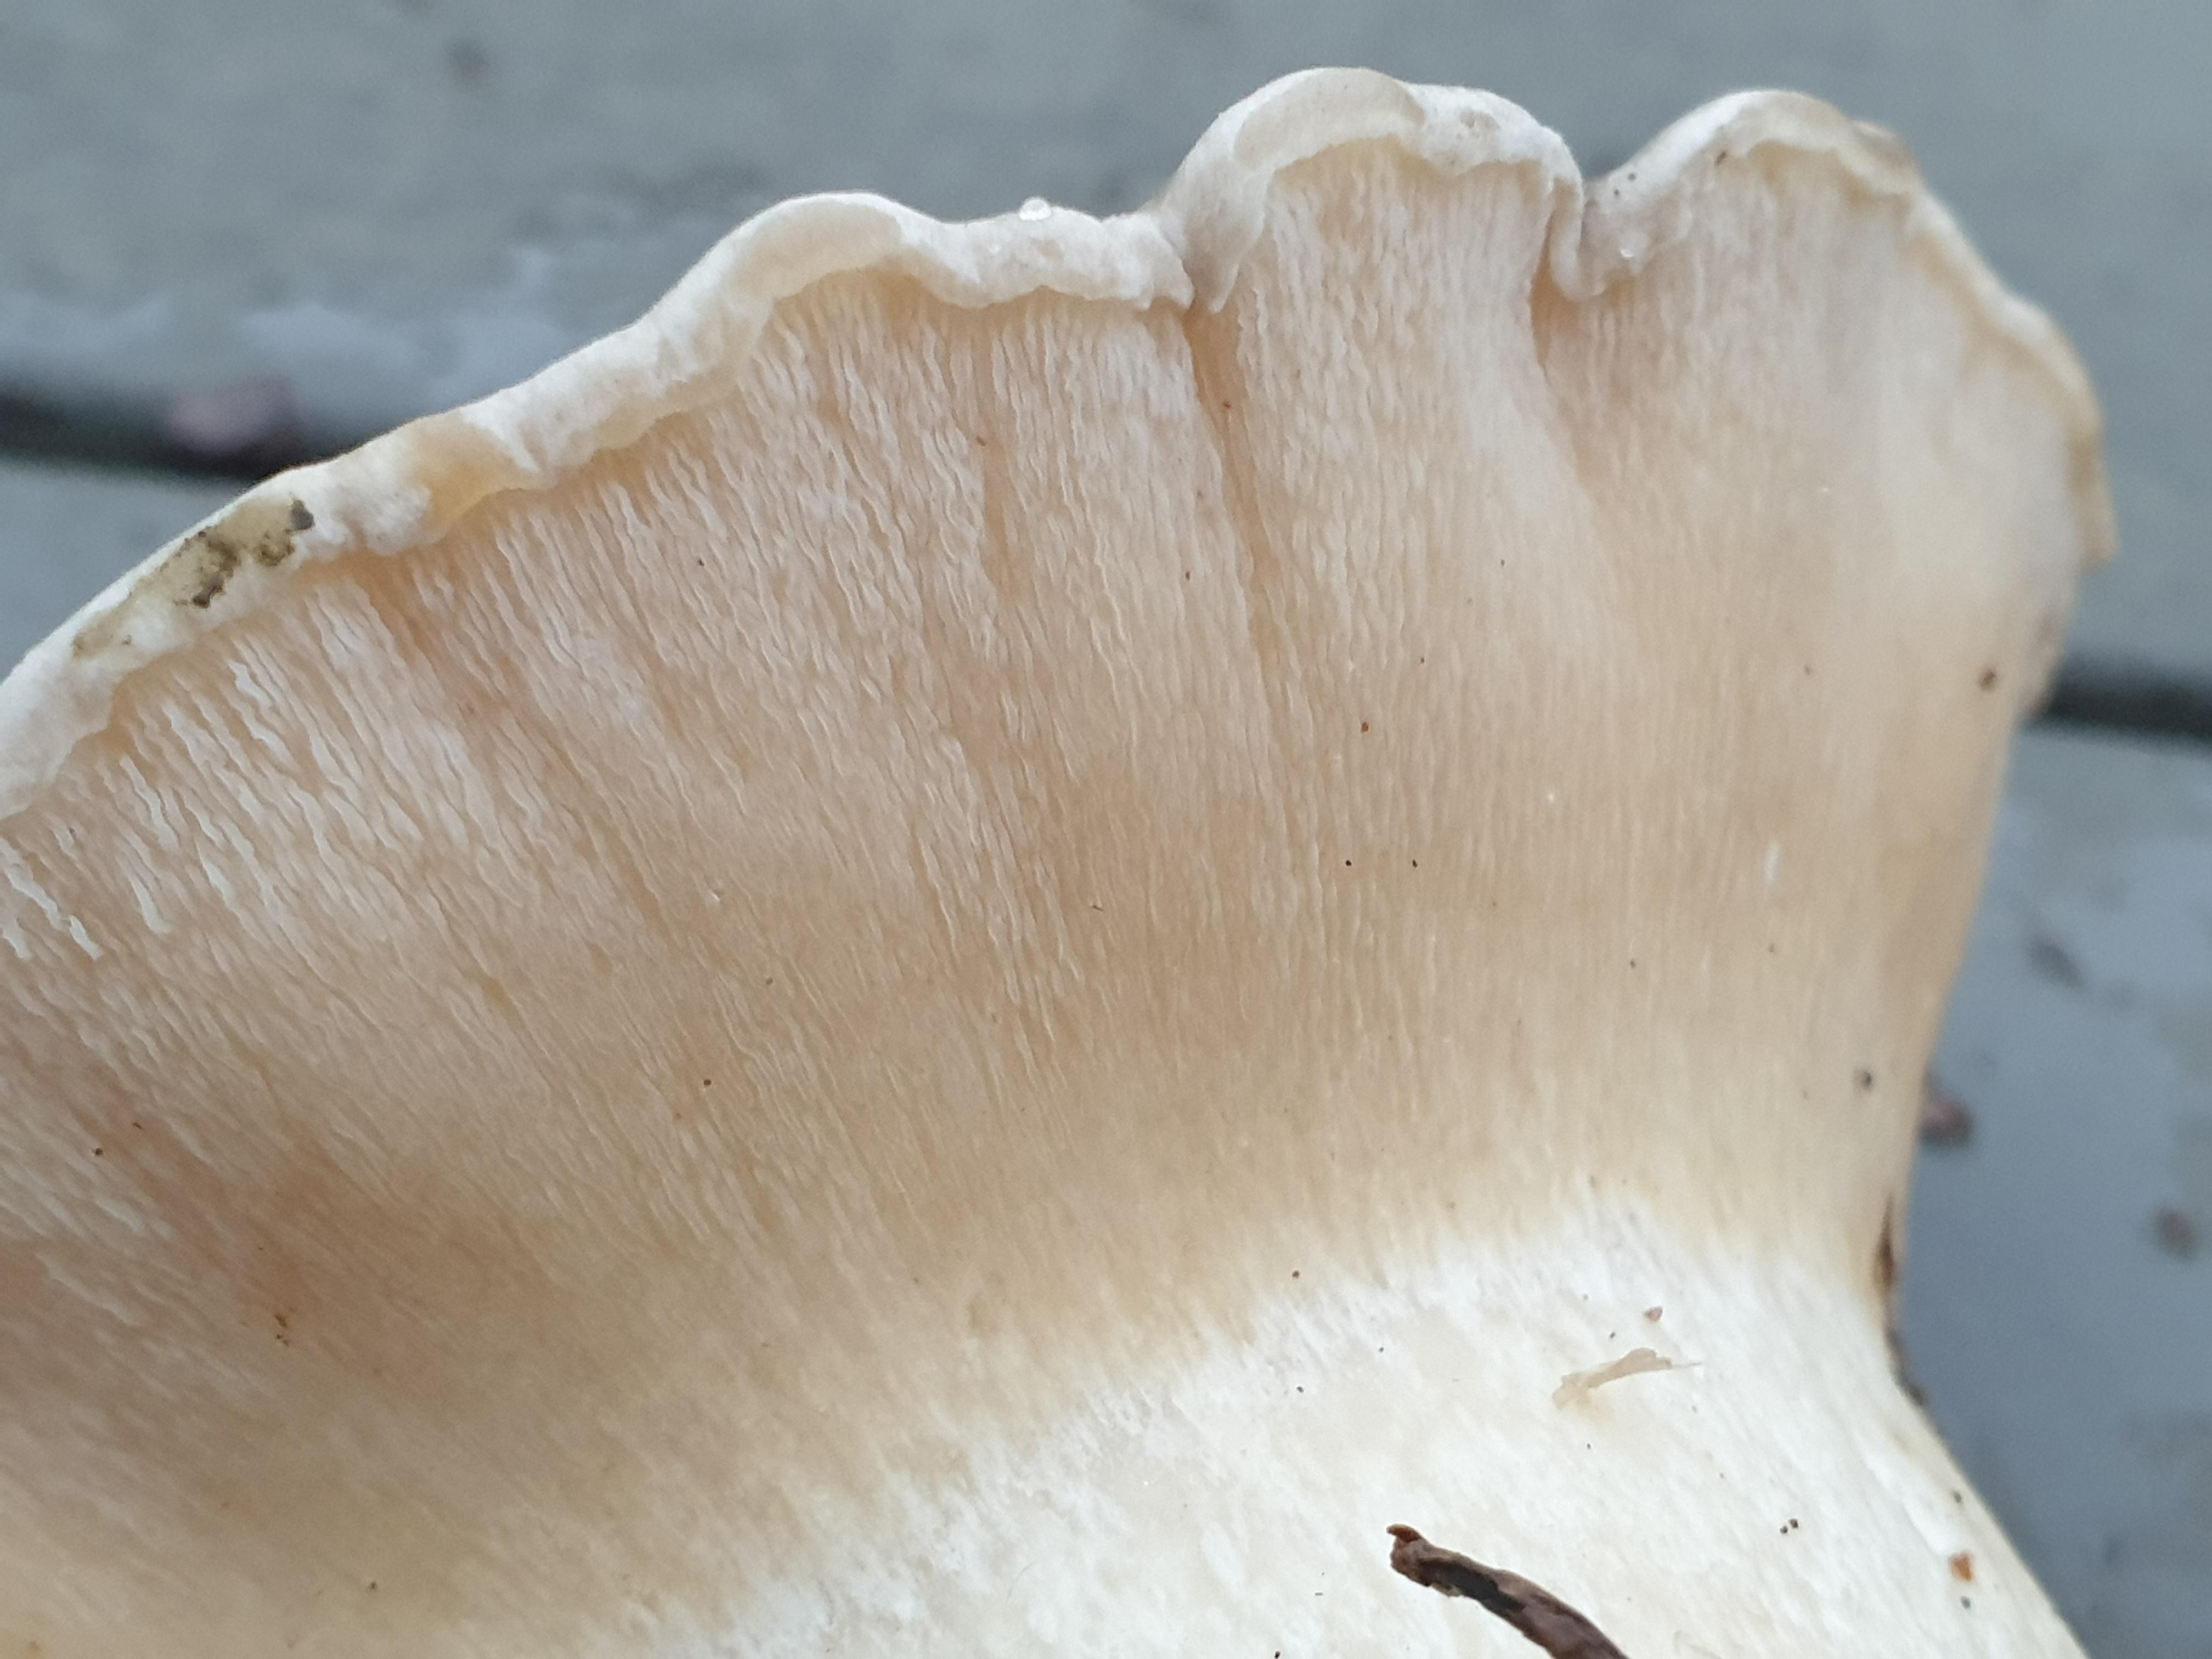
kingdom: Fungi
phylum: Basidiomycota
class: Agaricomycetes
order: Agaricales
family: Tricholomataceae
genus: Clitocybe
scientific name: Clitocybe nebularis
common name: tåge-tragthat
